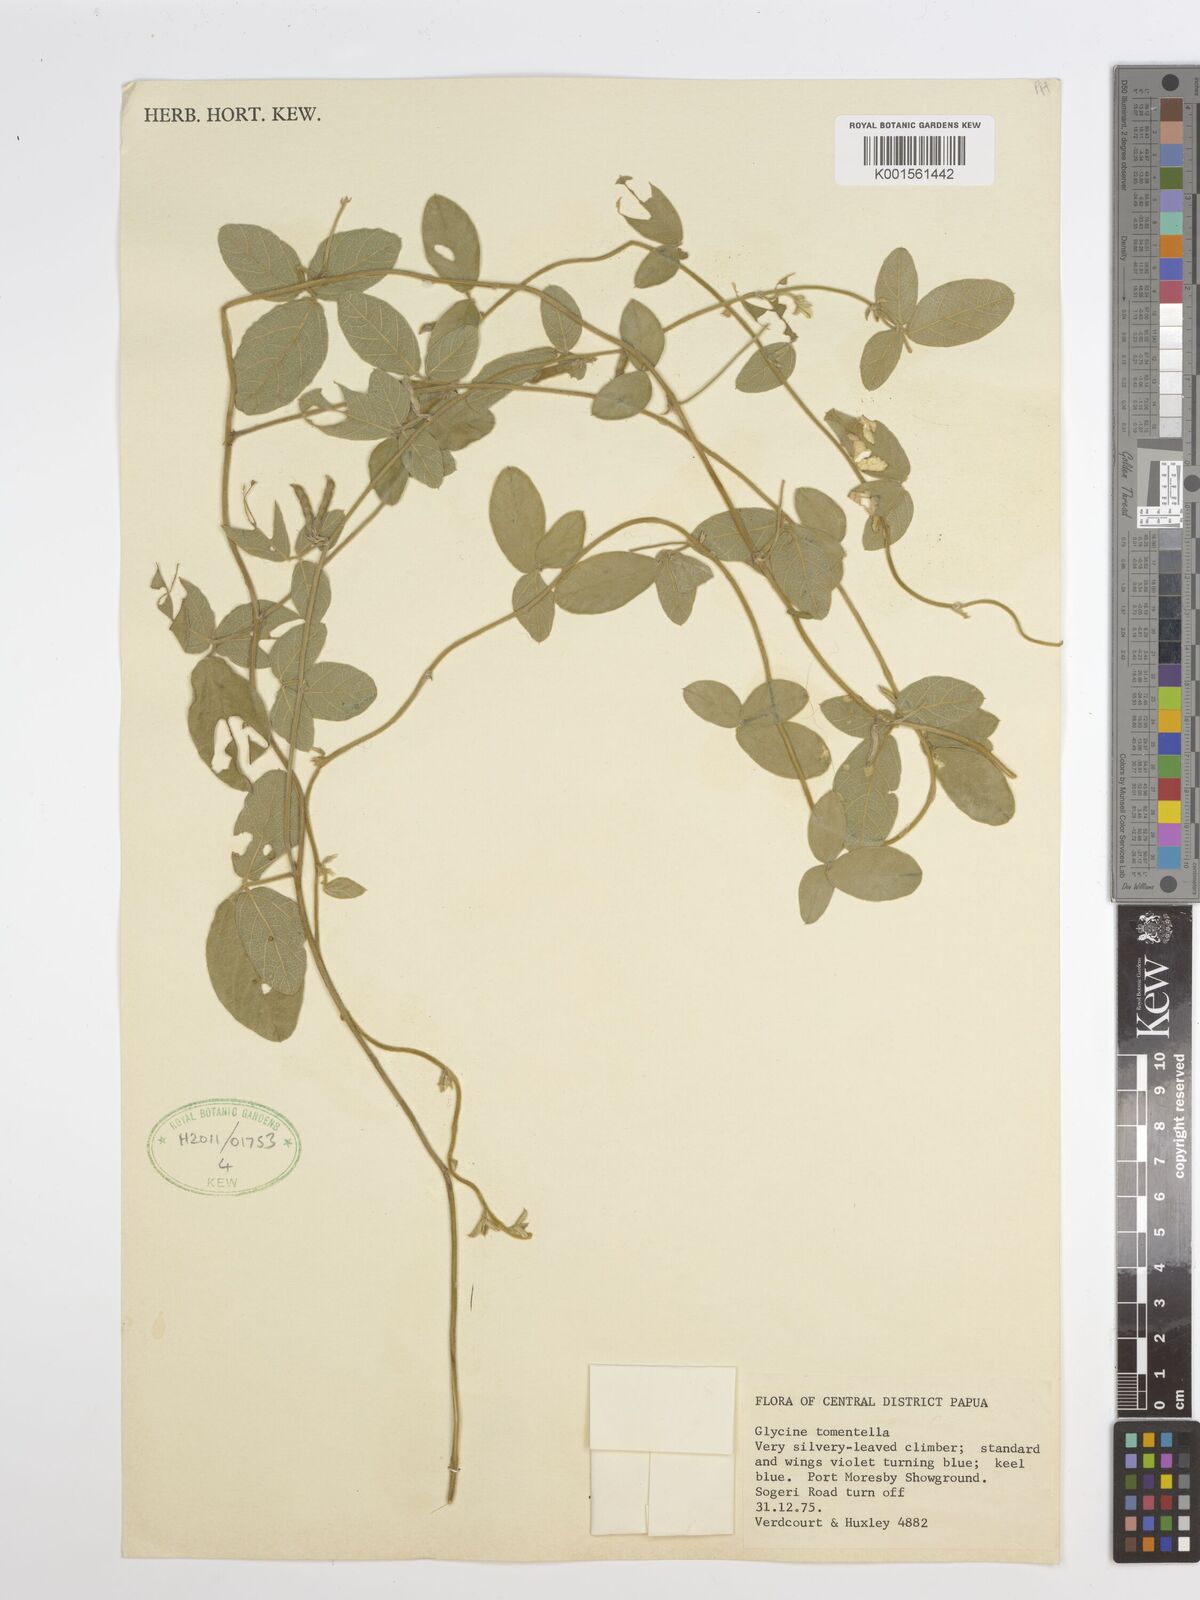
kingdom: Plantae
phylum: Tracheophyta
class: Magnoliopsida
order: Fabales
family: Fabaceae
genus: Glycine
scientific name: Glycine tomentella
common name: Hairy glycine
